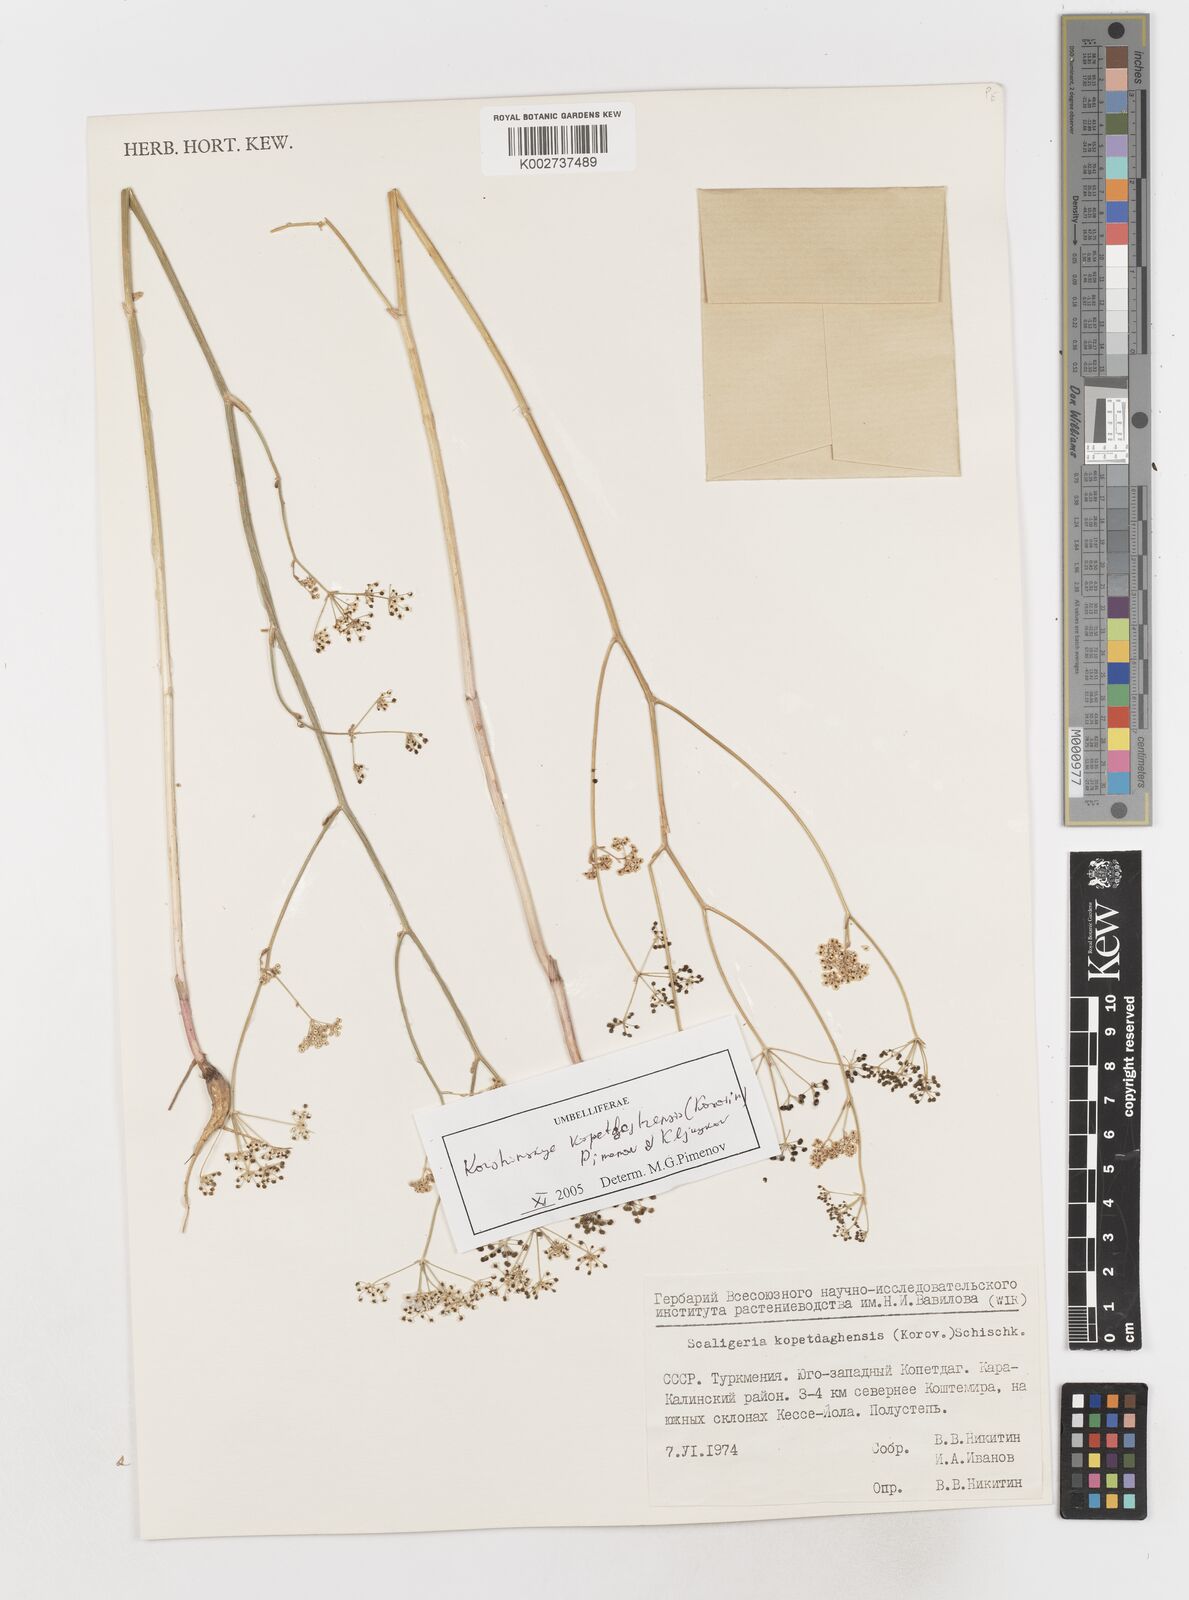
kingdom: Plantae
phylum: Tracheophyta
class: Magnoliopsida
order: Apiales
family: Apiaceae
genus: Pseudotrachydium
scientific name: Pseudotrachydium kopetdagense
